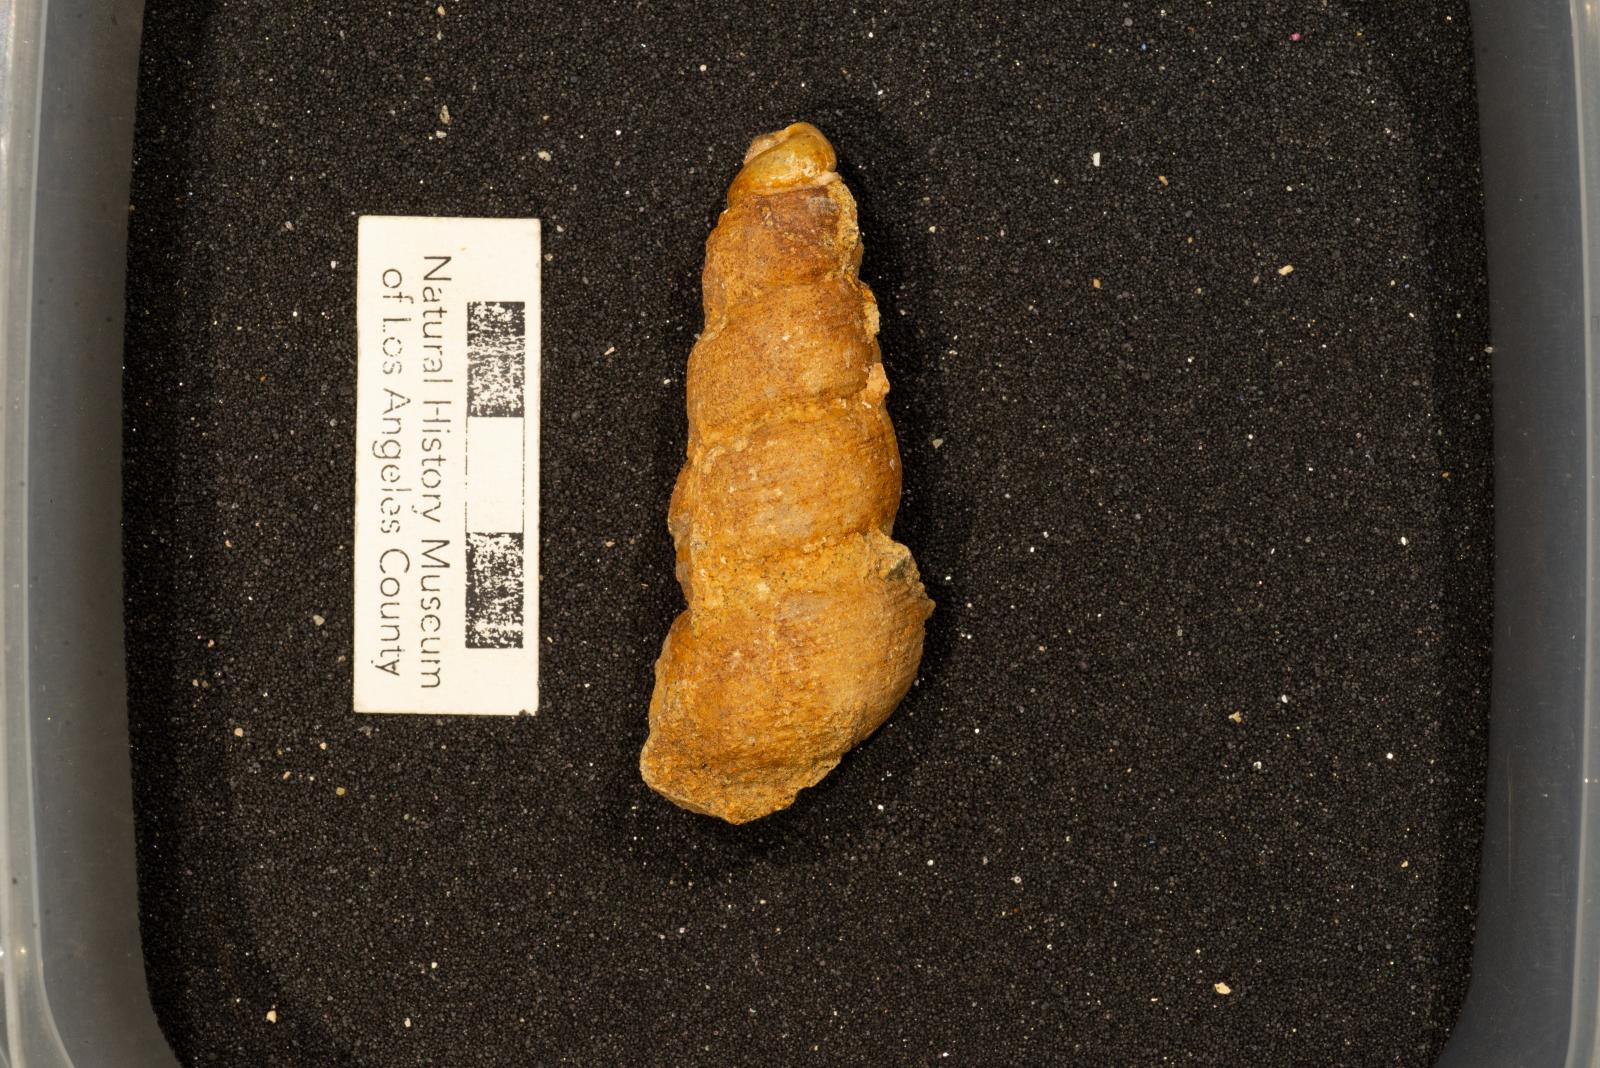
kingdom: Animalia
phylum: Mollusca
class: Gastropoda
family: Turritellidae
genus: Turritella
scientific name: Turritella chaneyi
